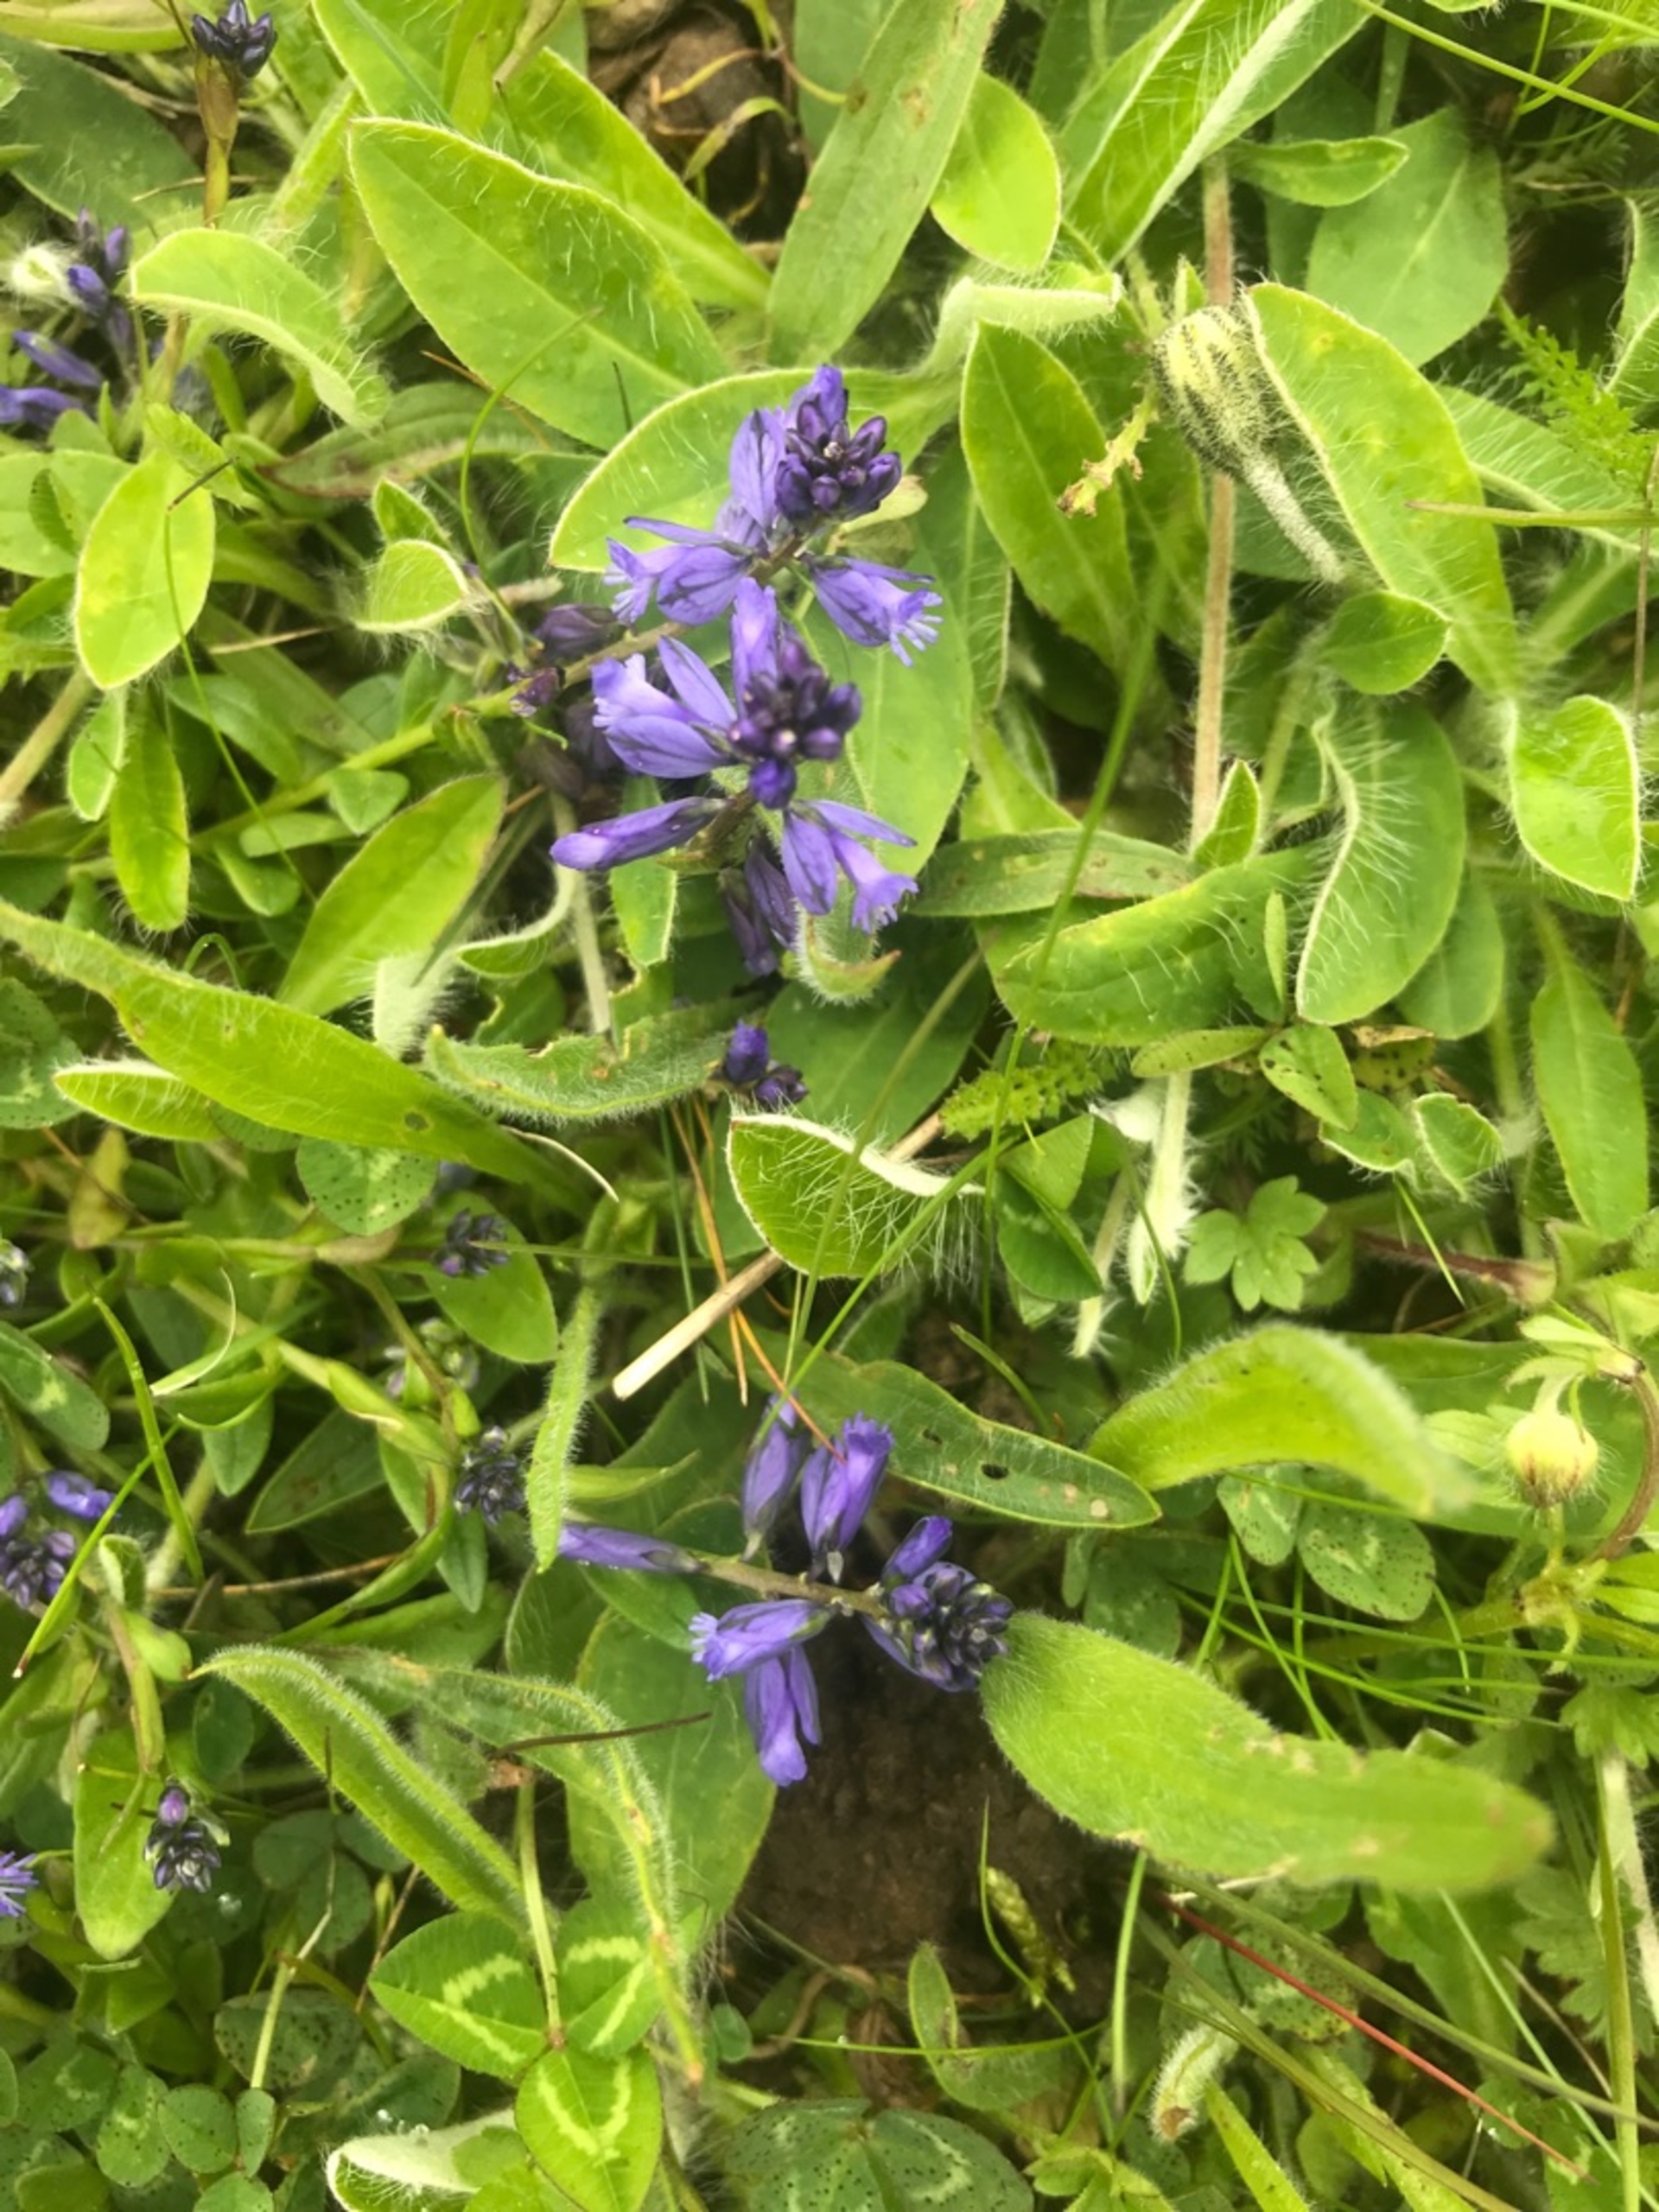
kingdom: Plantae
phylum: Tracheophyta
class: Magnoliopsida
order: Fabales
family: Polygalaceae
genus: Polygala
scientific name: Polygala vulgaris
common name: Almindelig mælkeurt
